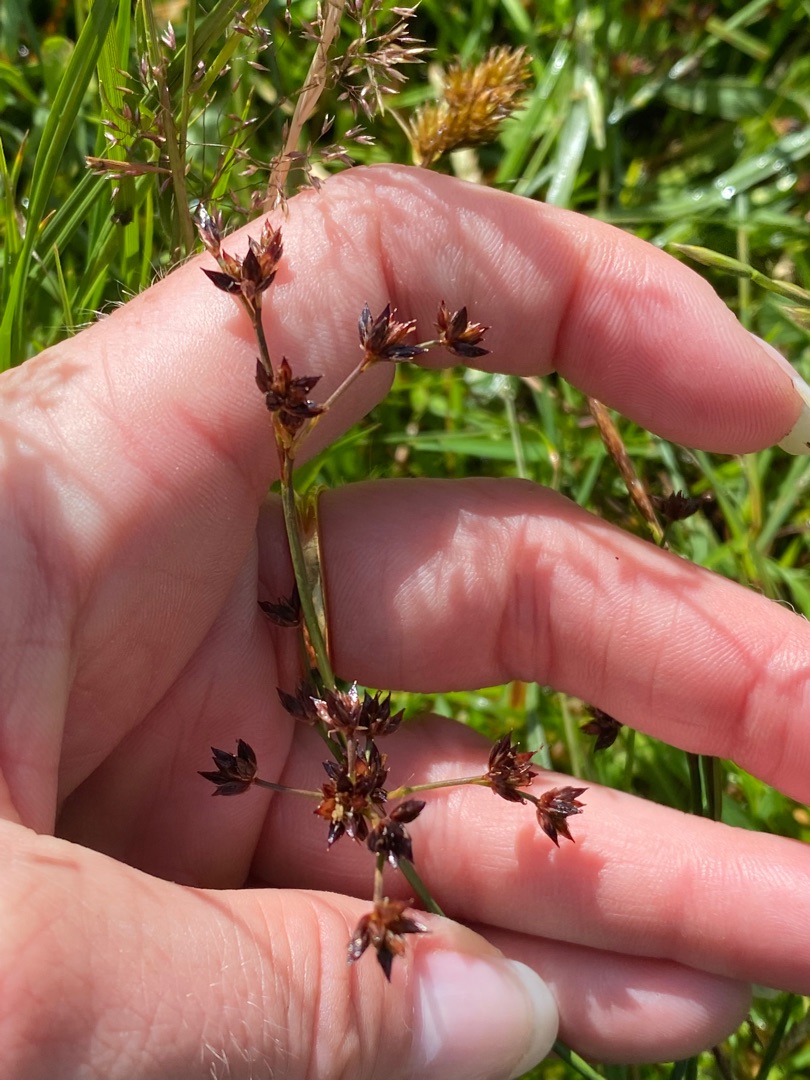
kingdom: Plantae
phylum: Tracheophyta
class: Liliopsida
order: Poales
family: Juncaceae
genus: Juncus
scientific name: Juncus articulatus
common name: Glanskapslet siv
